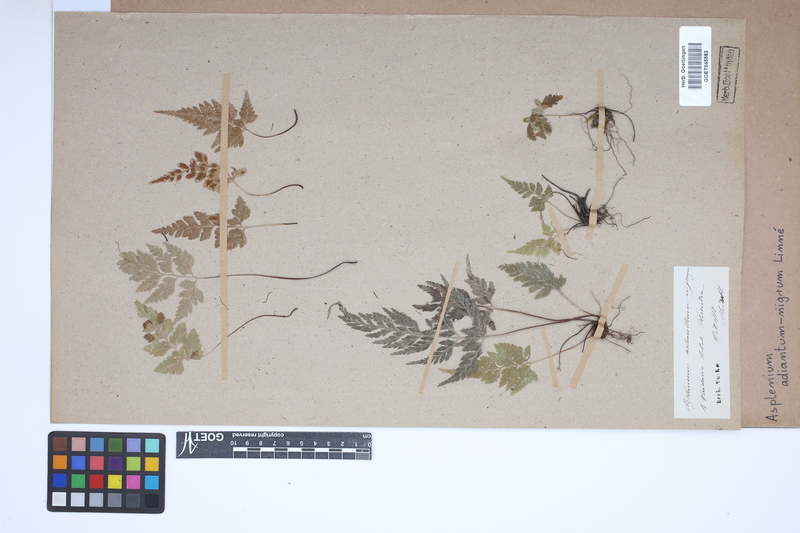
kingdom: Plantae
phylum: Tracheophyta
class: Polypodiopsida
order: Polypodiales
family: Aspleniaceae
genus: Asplenium
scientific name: Asplenium adiantum-nigrum
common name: Black spleenwort
